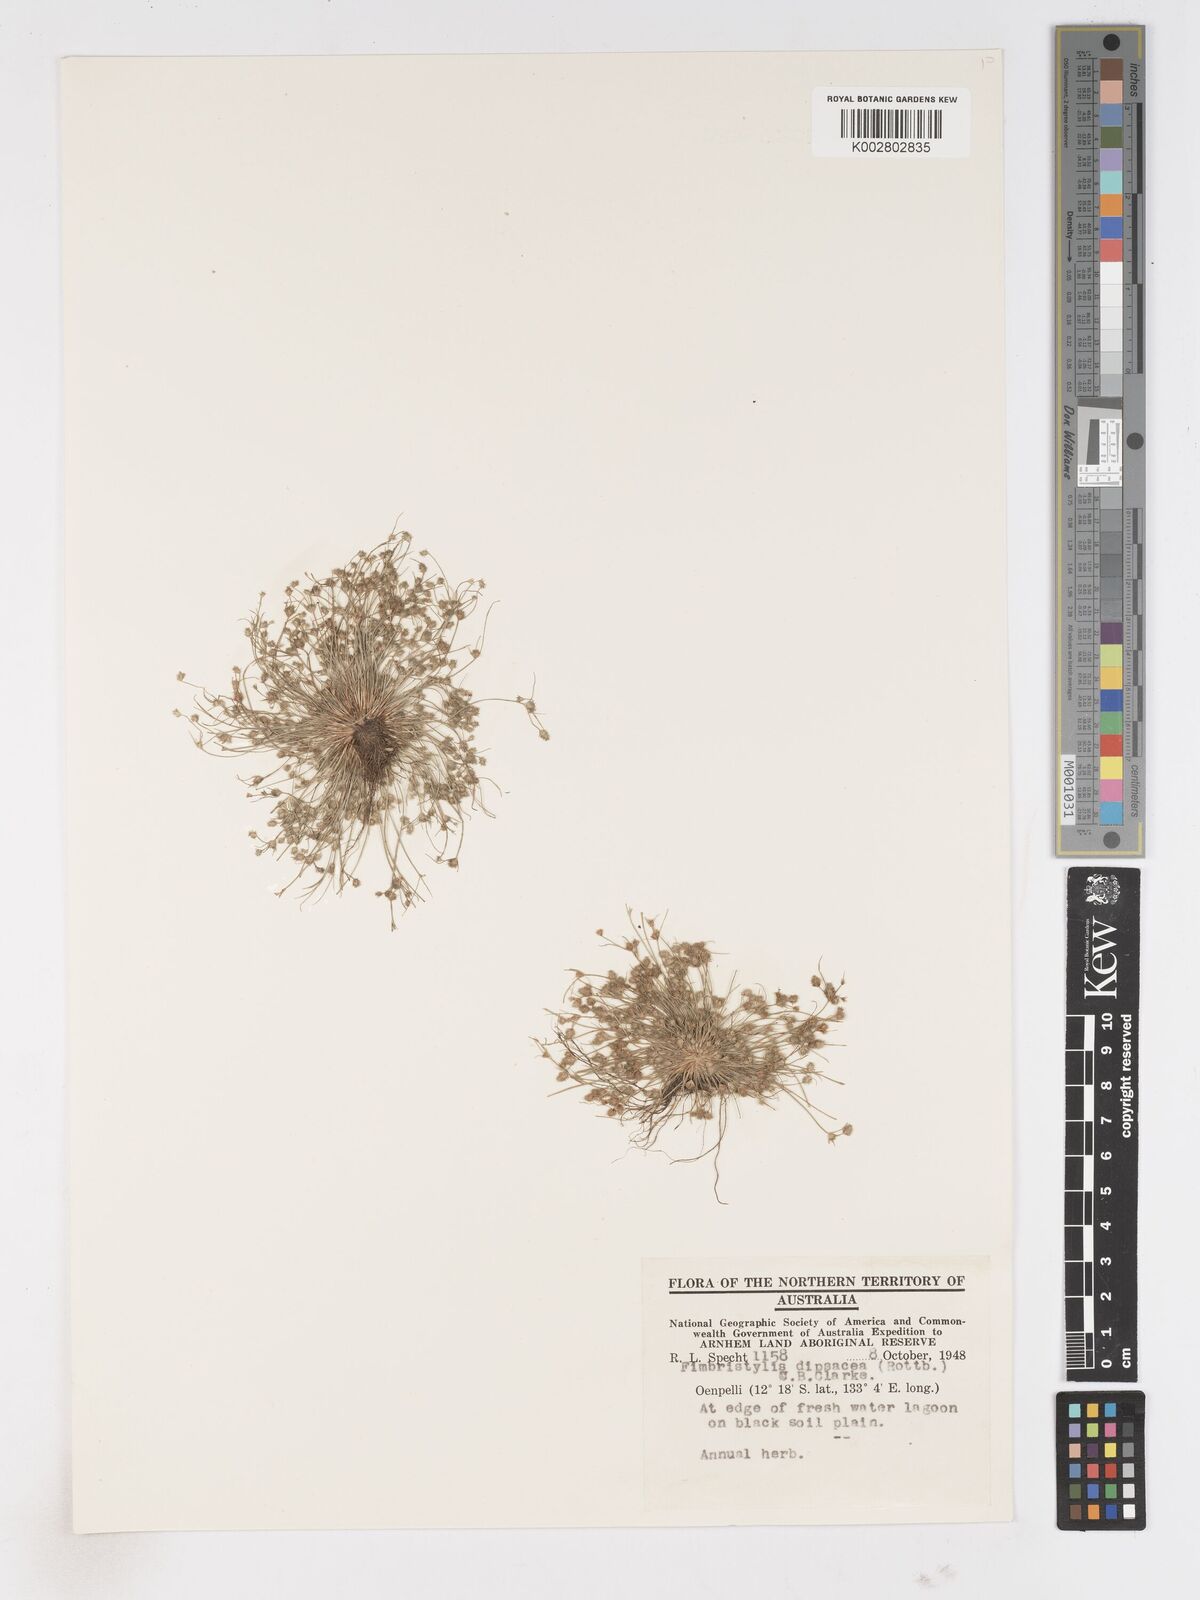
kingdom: Plantae
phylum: Tracheophyta
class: Liliopsida
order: Poales
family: Cyperaceae
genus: Fimbristylis
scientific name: Fimbristylis dipsacea
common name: Harper's fimbristylis
